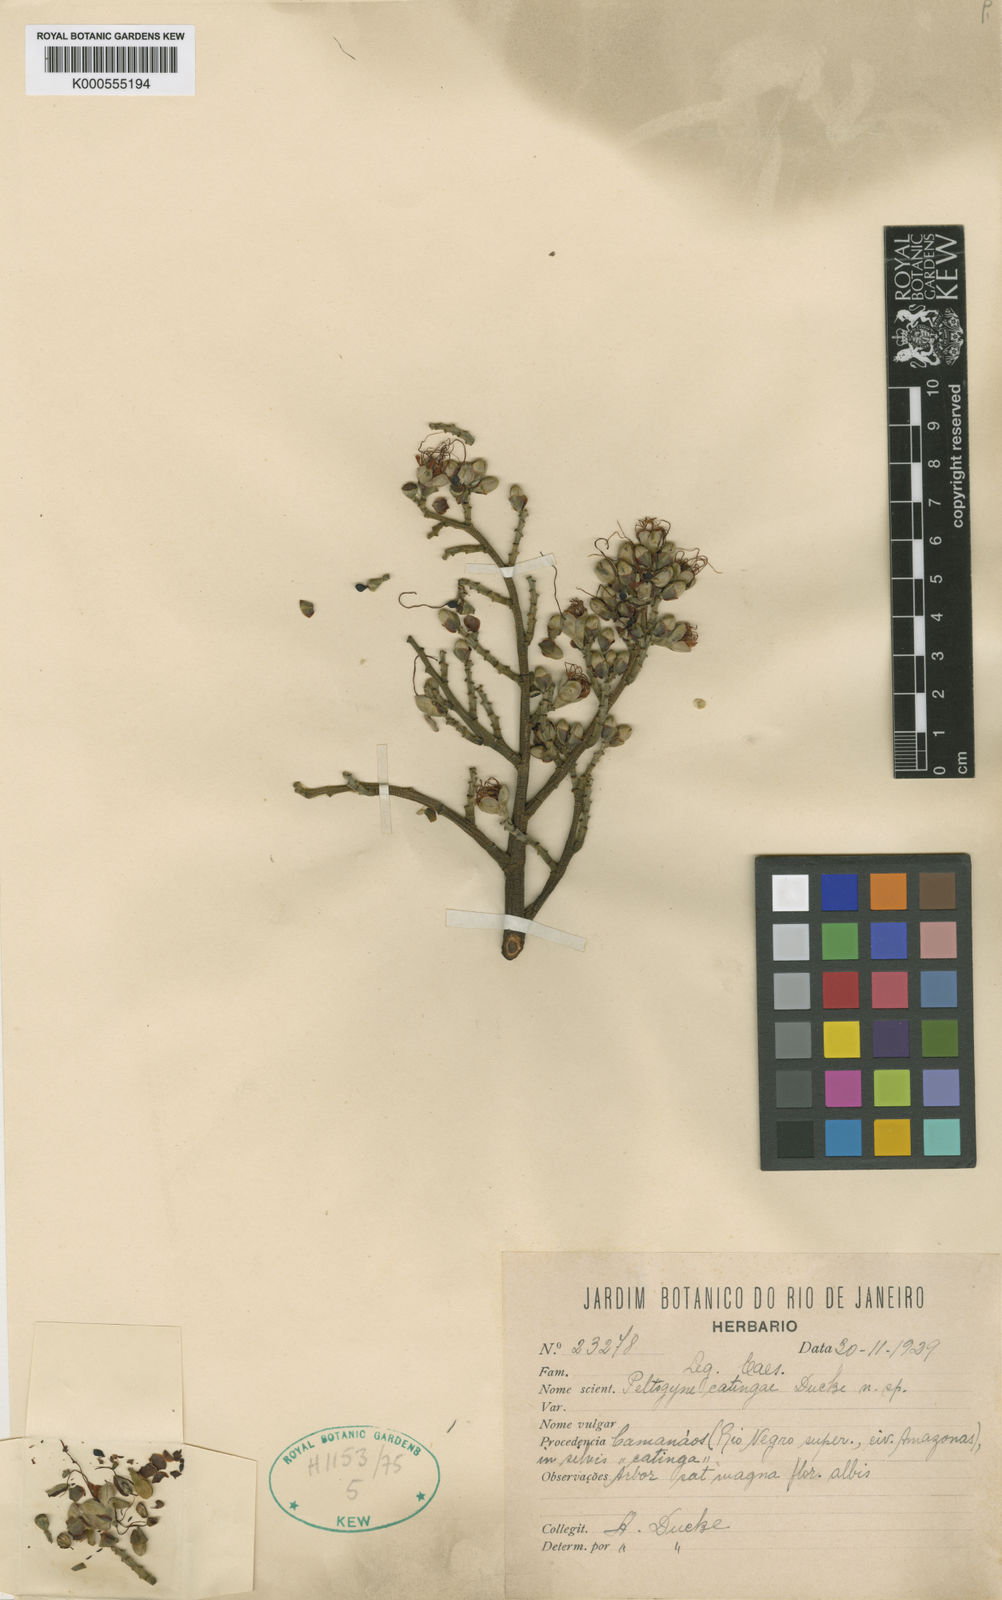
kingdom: Plantae
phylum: Tracheophyta
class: Magnoliopsida
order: Fabales
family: Fabaceae
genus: Peltogyne
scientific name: Peltogyne catingae
